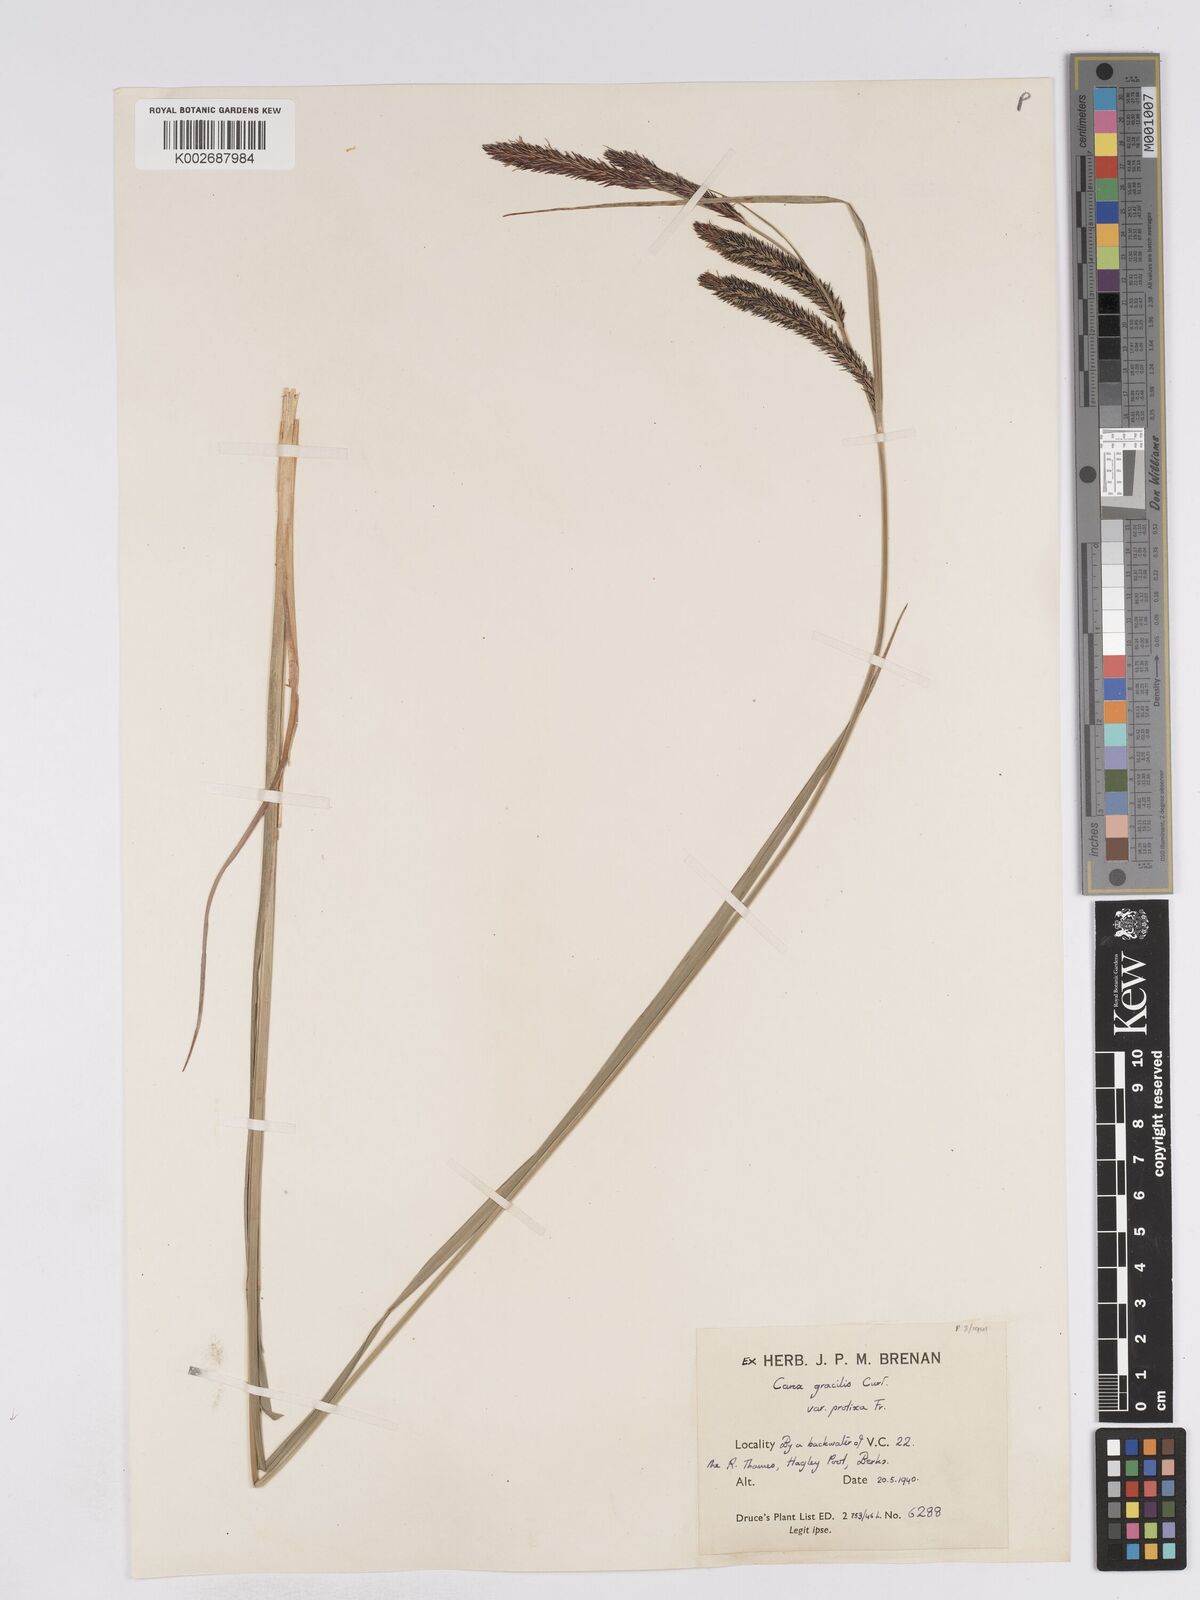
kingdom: Plantae
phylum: Tracheophyta
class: Liliopsida
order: Poales
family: Cyperaceae
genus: Carex
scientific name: Carex acuta
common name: Slender tufted-sedge
